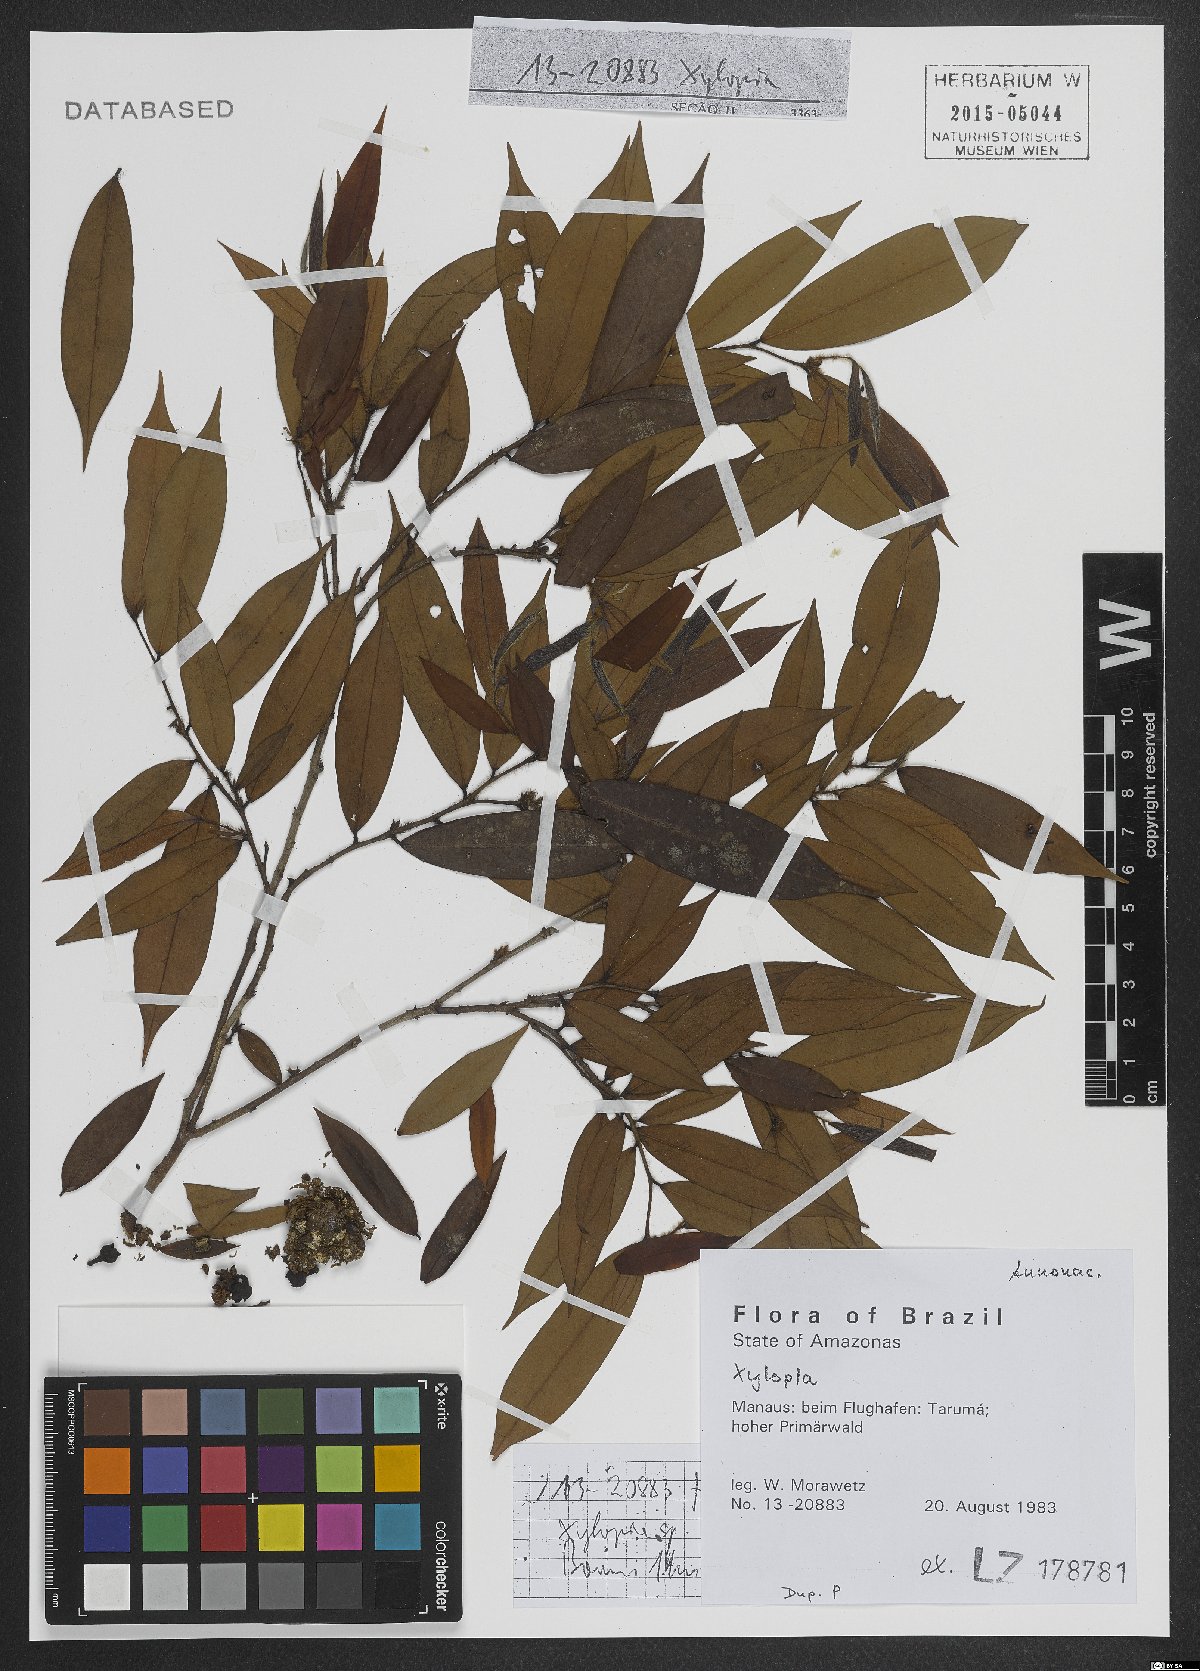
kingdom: Plantae
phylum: Tracheophyta
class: Magnoliopsida
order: Magnoliales
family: Annonaceae
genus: Xylopia
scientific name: Xylopia
